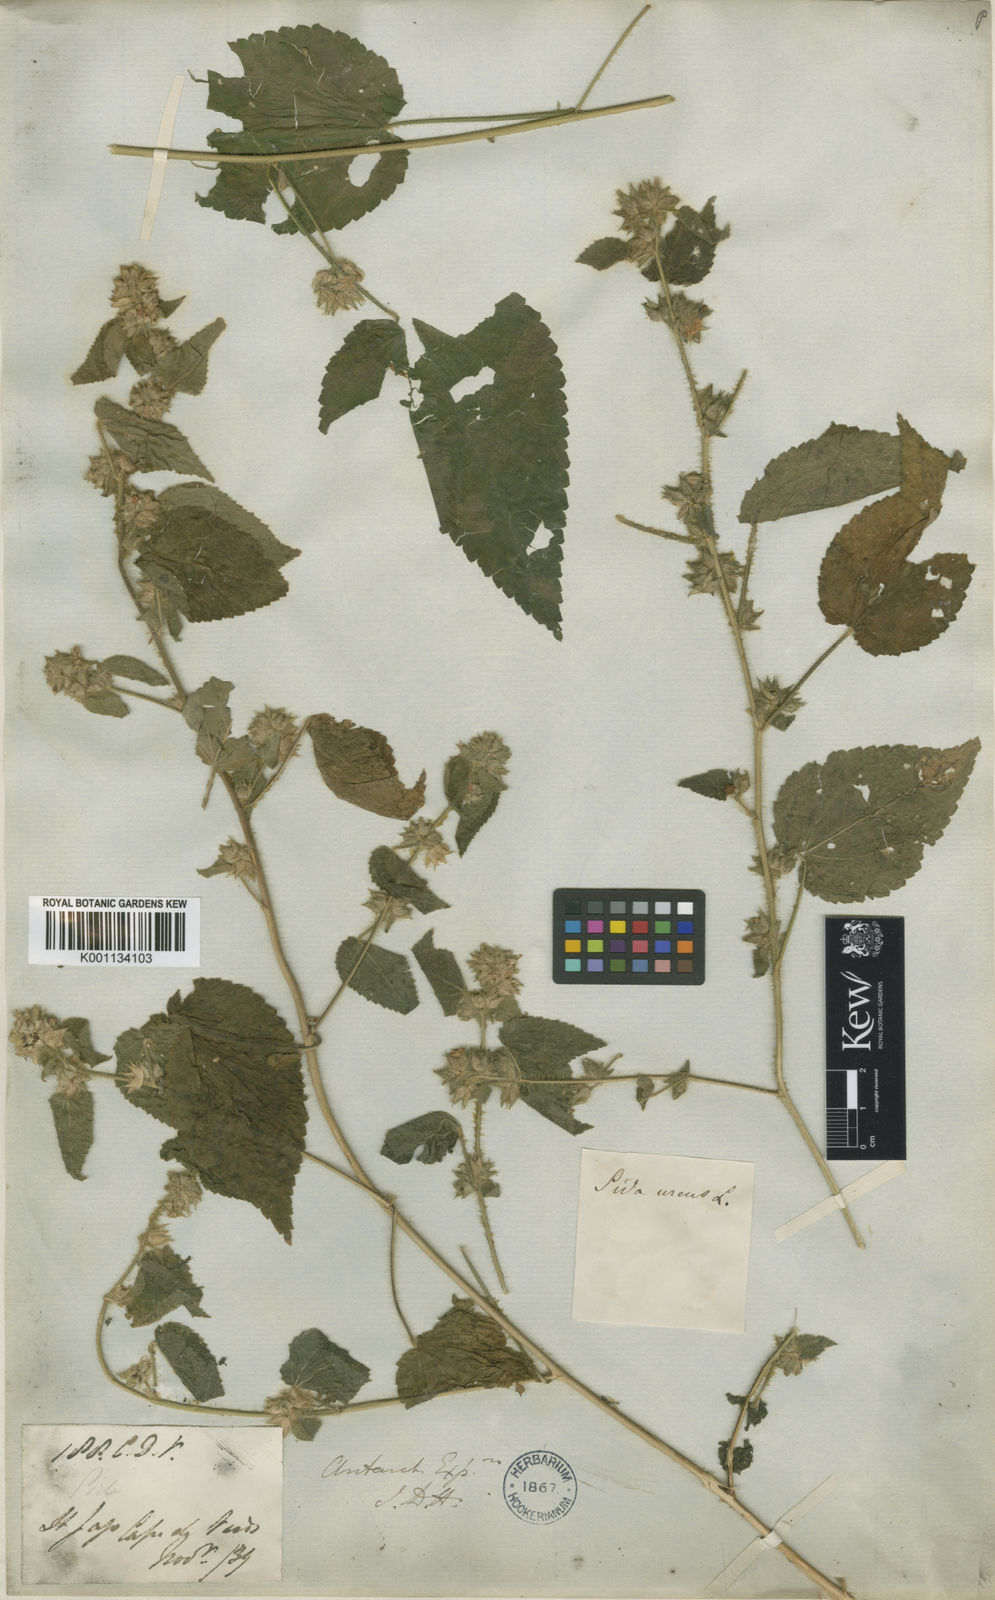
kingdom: Plantae
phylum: Tracheophyta
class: Magnoliopsida
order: Malvales
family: Malvaceae
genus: Sida
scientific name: Sida urens
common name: Tropical fanpetals
